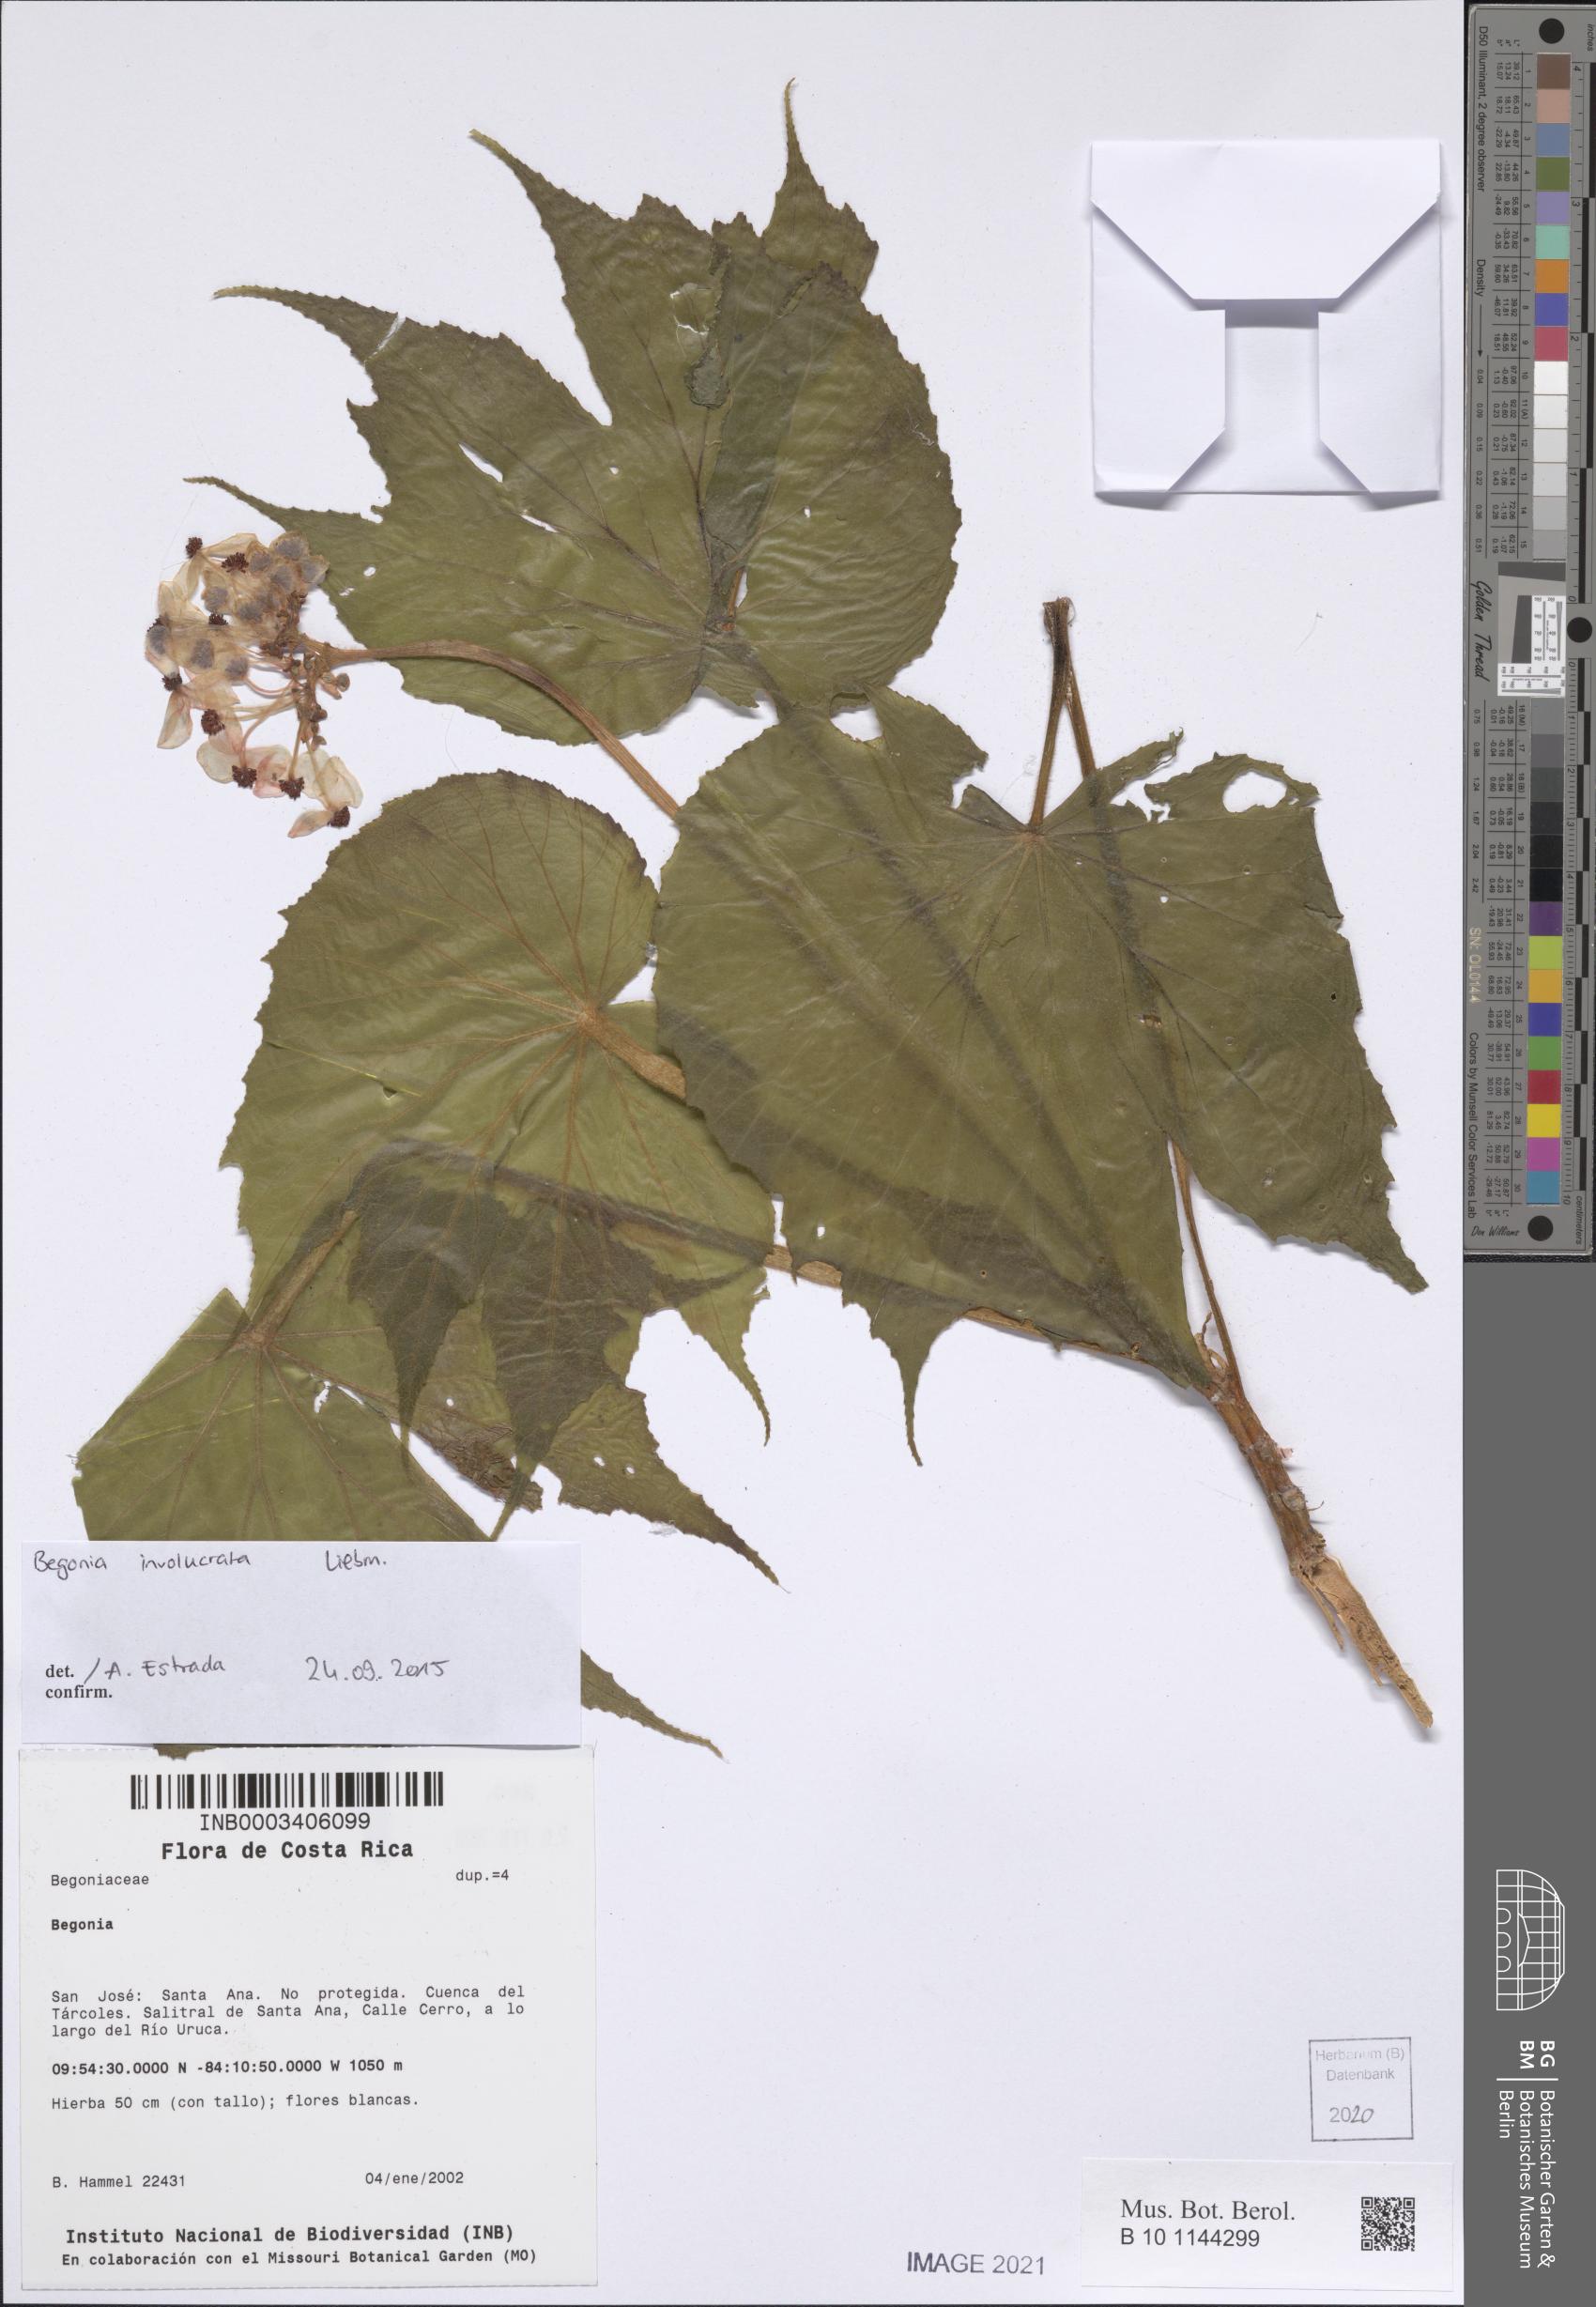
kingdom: Plantae
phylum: Tracheophyta
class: Magnoliopsida
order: Cucurbitales
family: Begoniaceae
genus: Begonia
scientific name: Begonia
